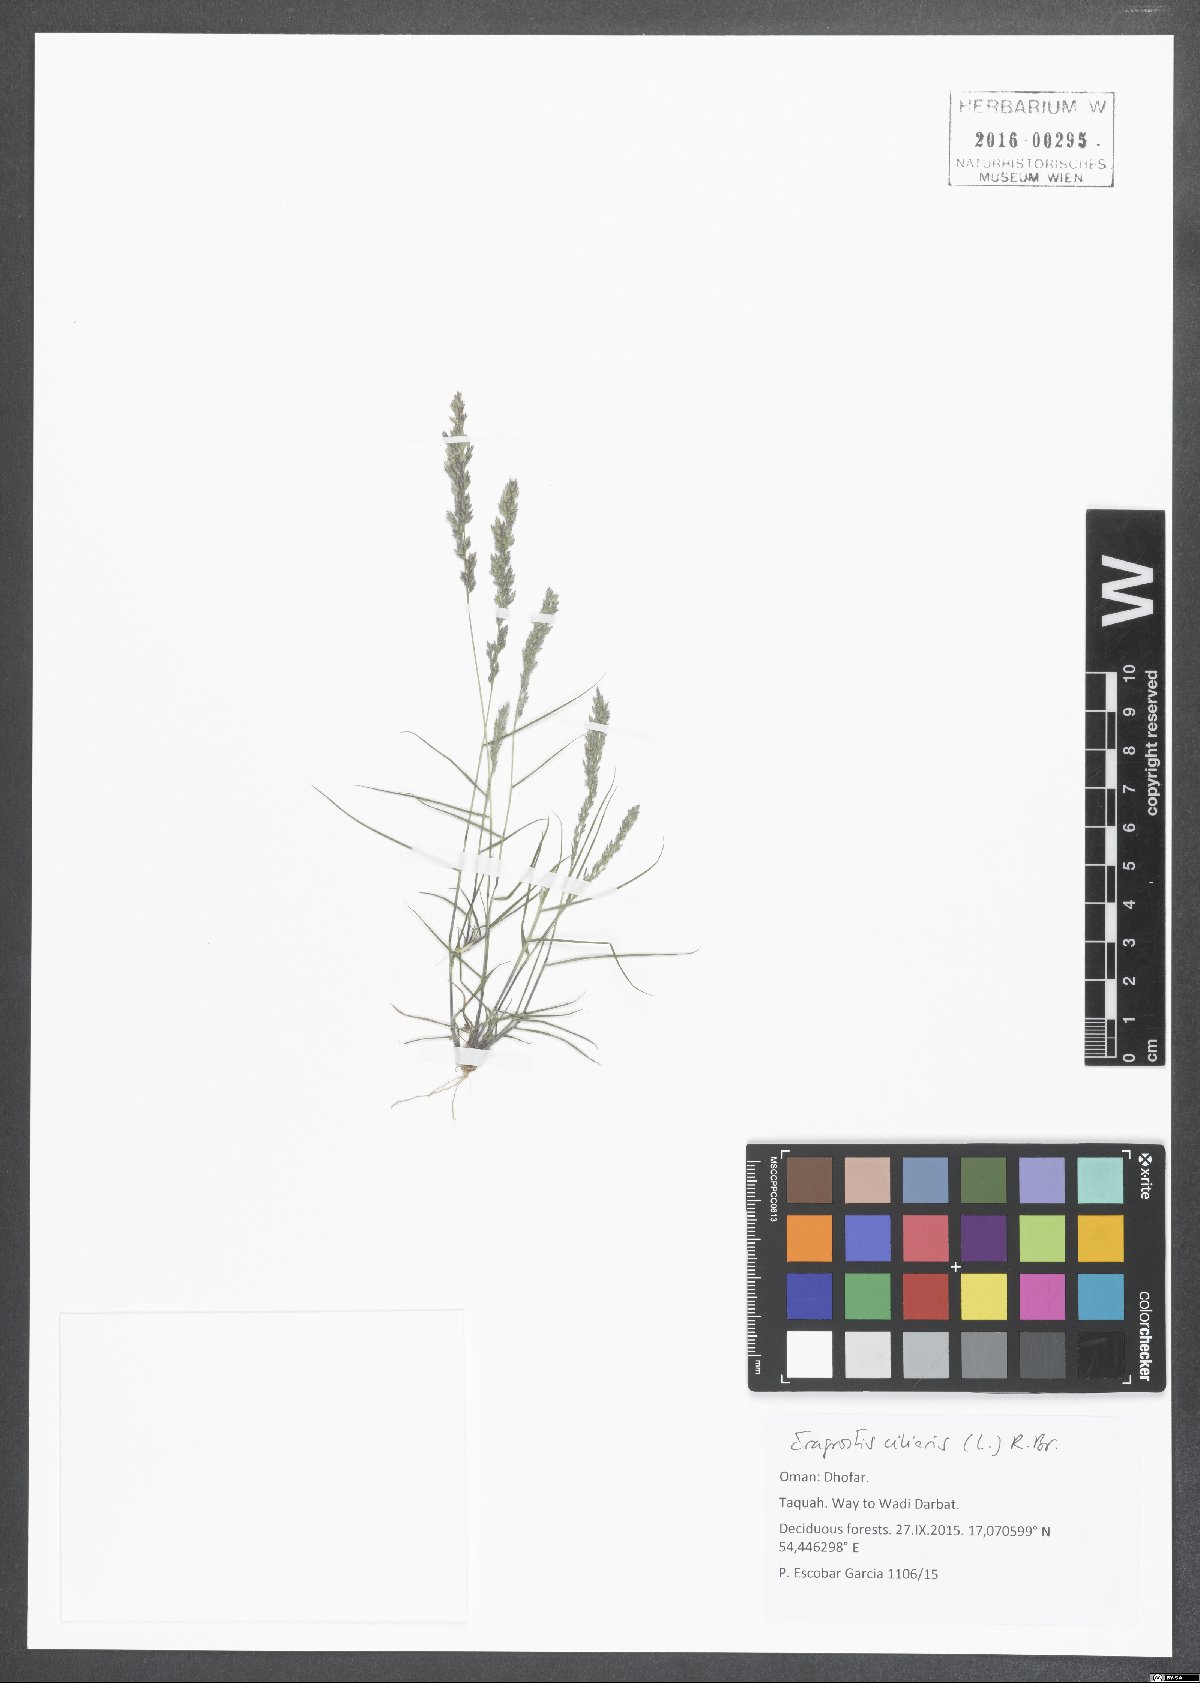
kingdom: Plantae
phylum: Tracheophyta
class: Liliopsida
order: Poales
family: Poaceae
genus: Eragrostis
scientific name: Eragrostis ciliaris
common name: Gophertail lovegrass
